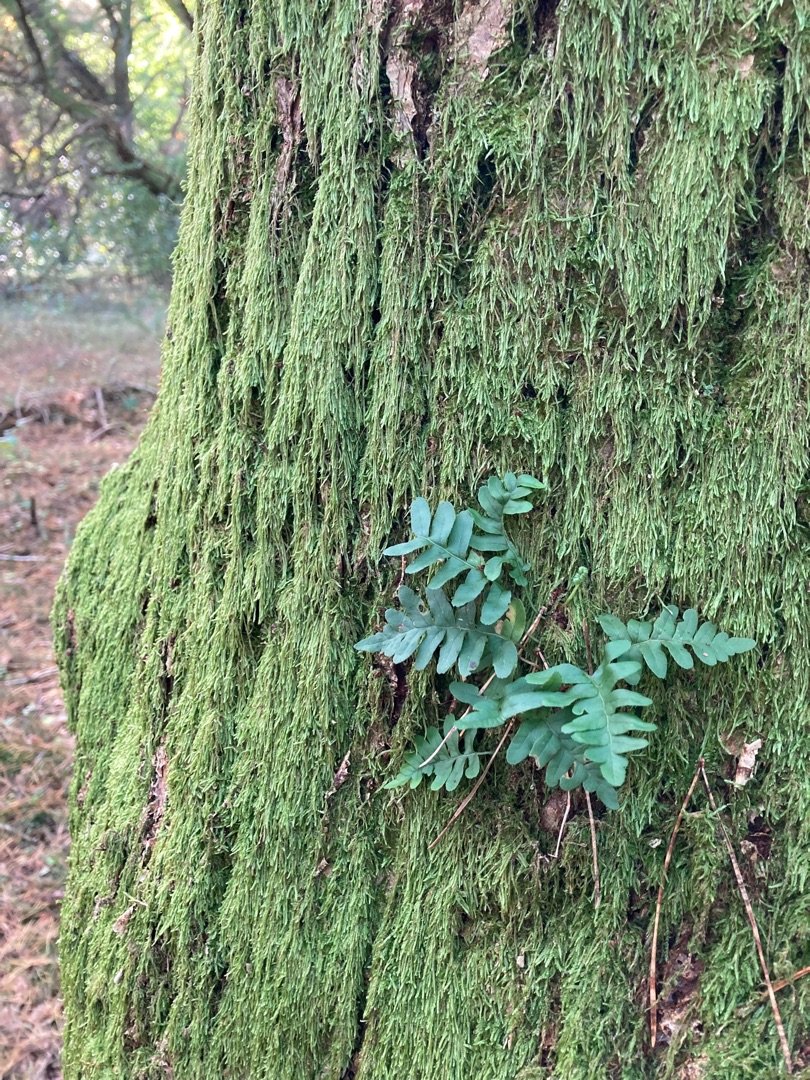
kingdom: Plantae
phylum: Tracheophyta
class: Polypodiopsida
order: Polypodiales
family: Polypodiaceae
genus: Polypodium
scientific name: Polypodium vulgare
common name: Almindelig engelsød
